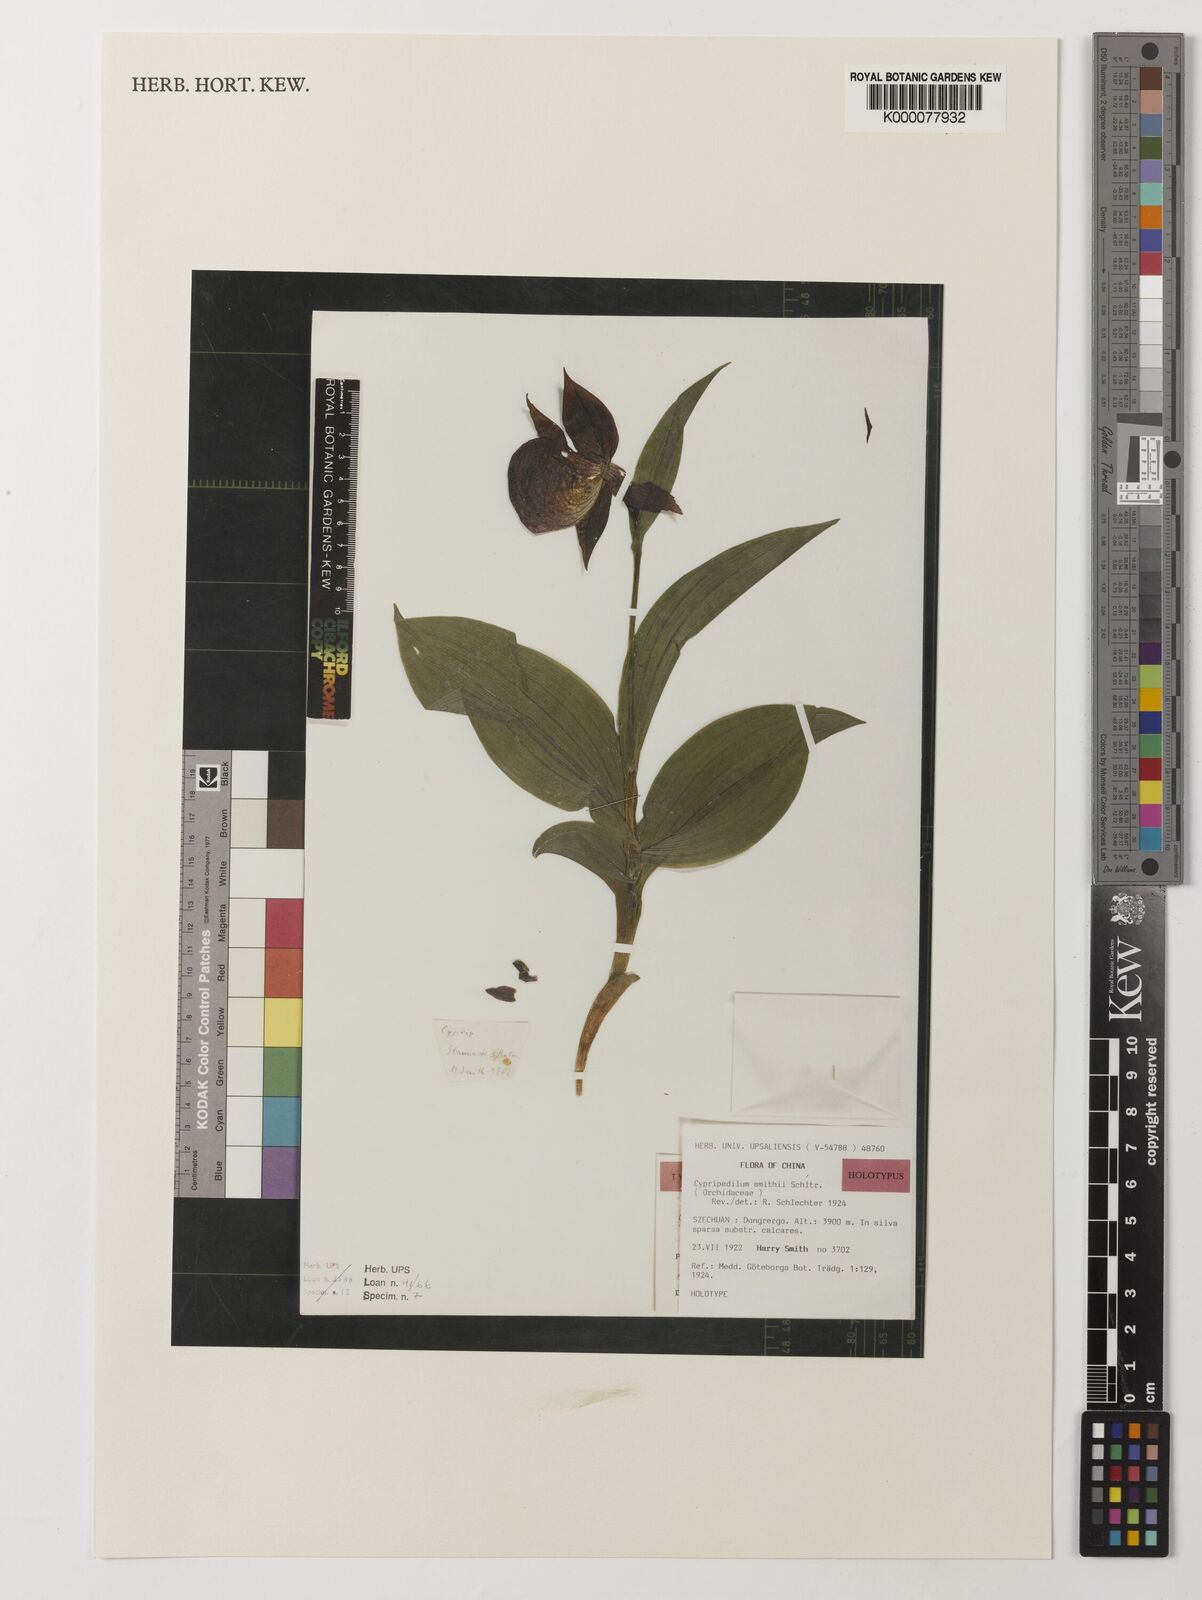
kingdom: Plantae
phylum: Tracheophyta
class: Liliopsida
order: Asparagales
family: Orchidaceae
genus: Cypripedium
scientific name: Cypripedium calcicola
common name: Lime loving cypripedium
